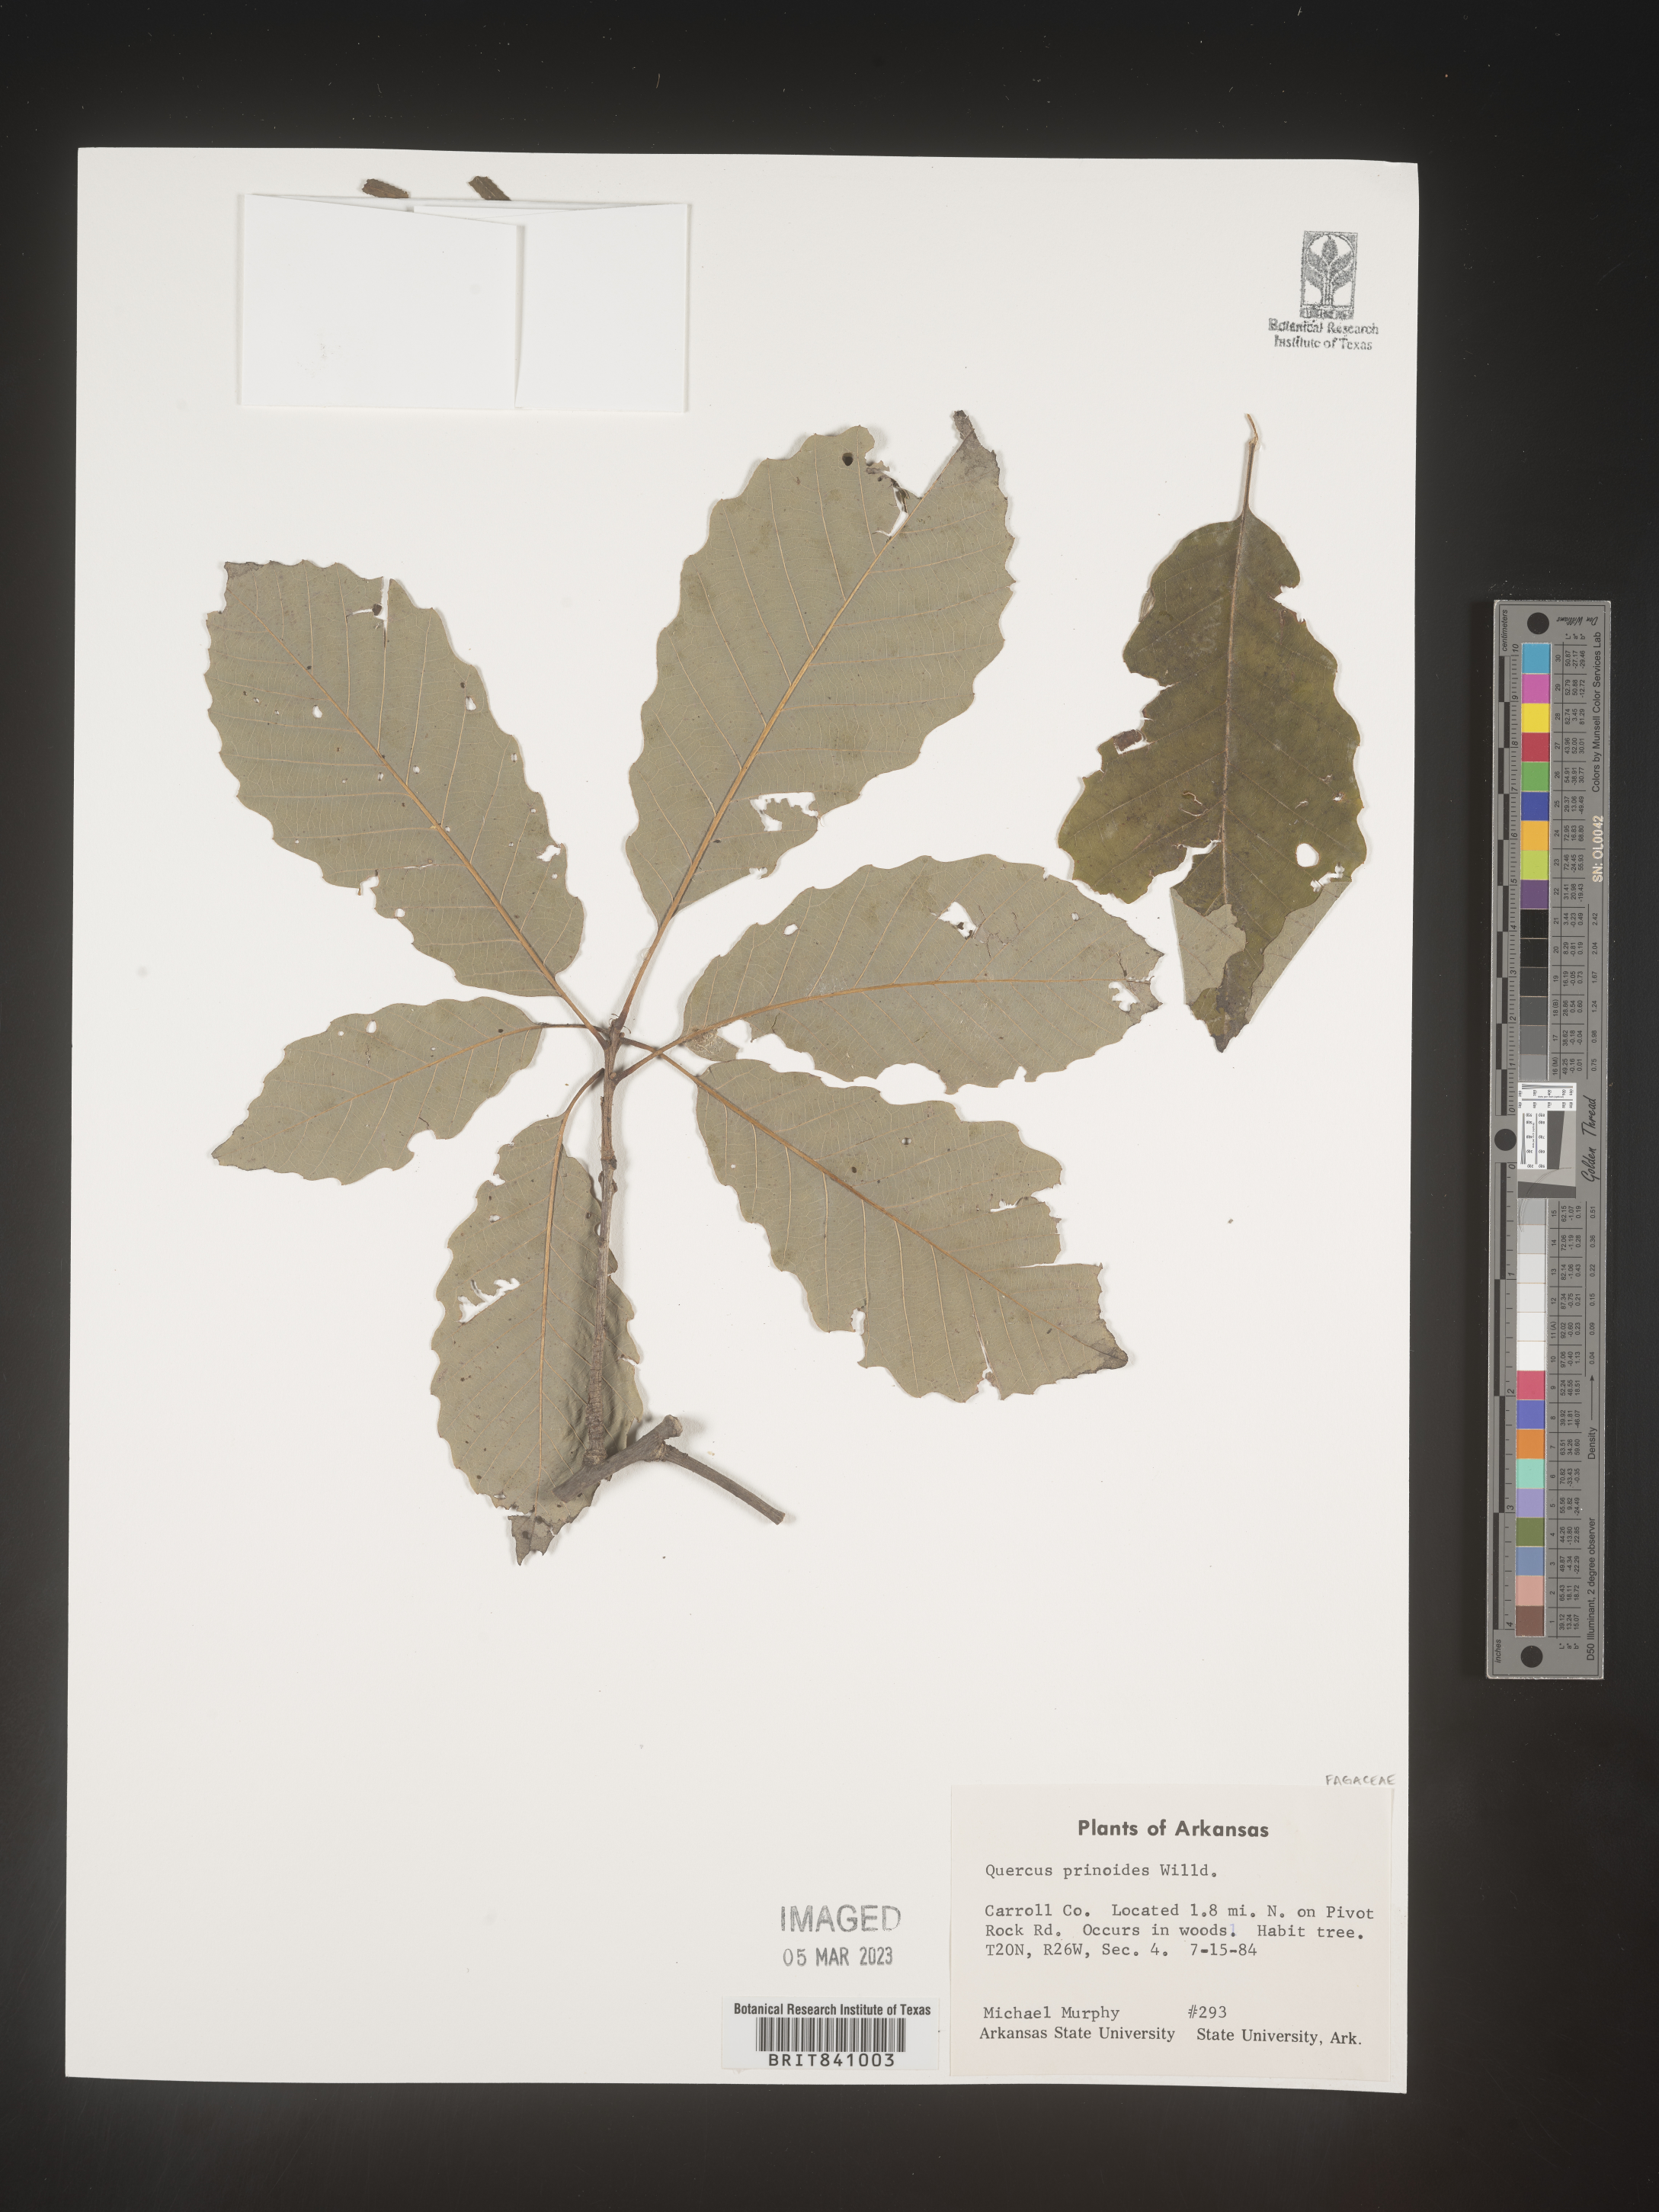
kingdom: Plantae
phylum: Tracheophyta
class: Magnoliopsida
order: Fagales
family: Fagaceae
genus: Quercus
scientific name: Quercus prinoides
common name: Dwarf chinkapin oak
